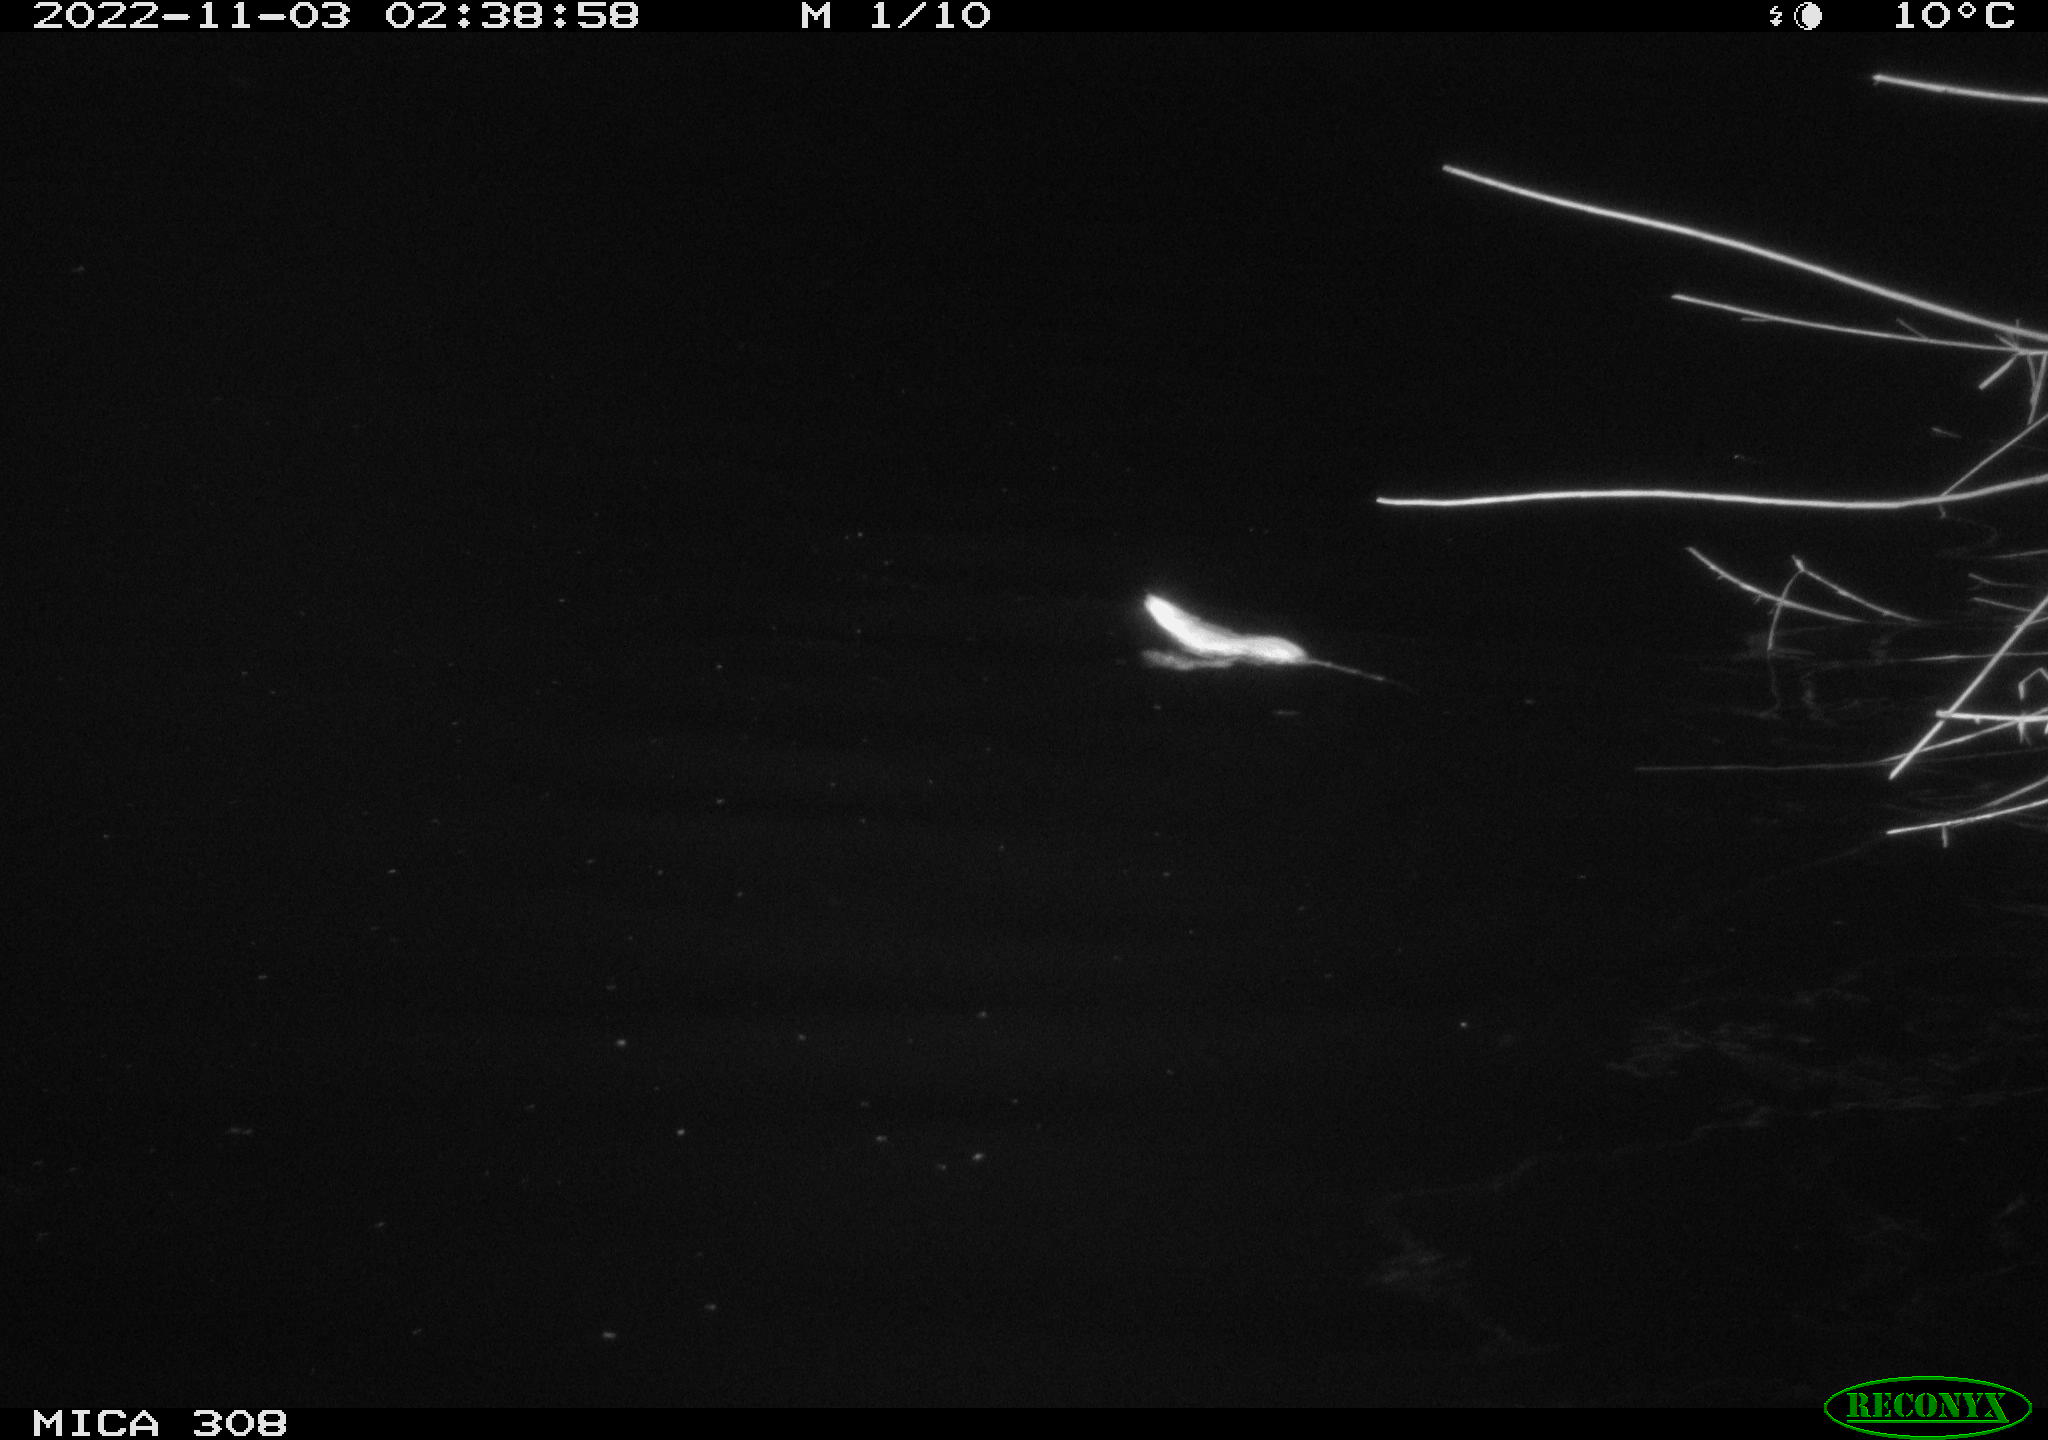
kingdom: Animalia
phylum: Chordata
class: Mammalia
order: Rodentia
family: Muridae
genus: Rattus
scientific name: Rattus norvegicus
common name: Brown rat
